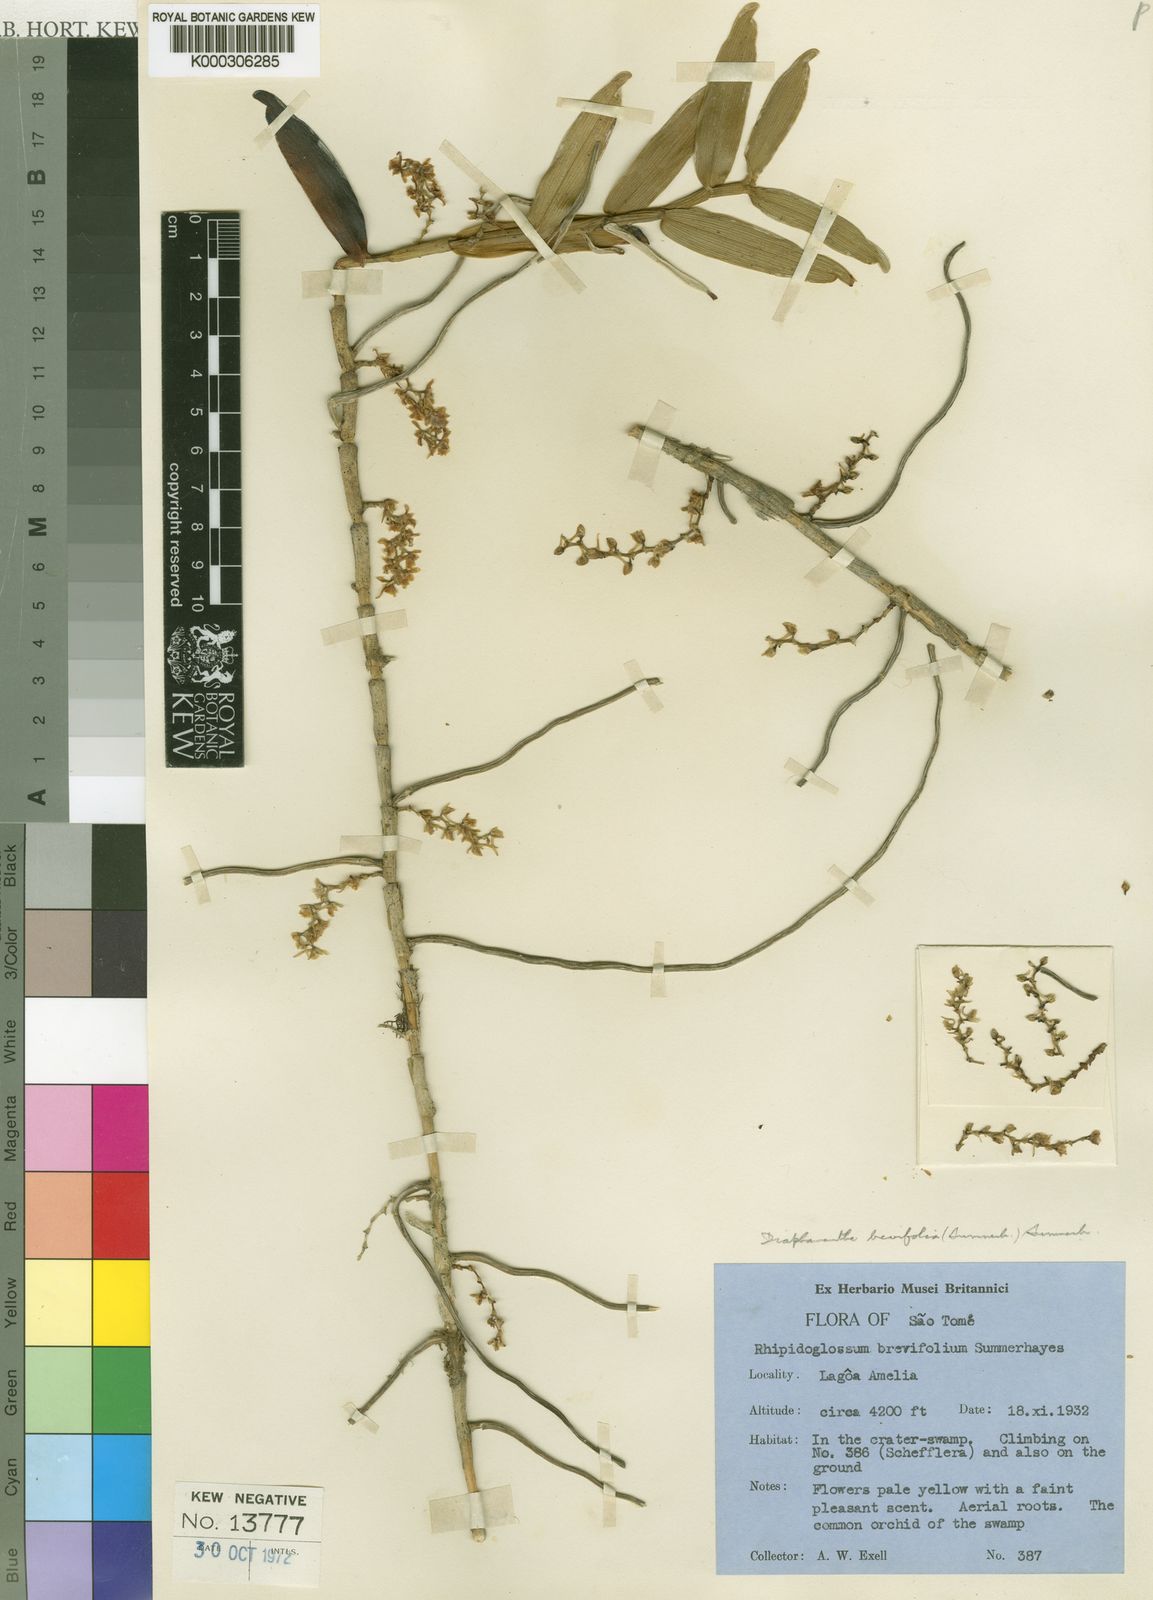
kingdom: Plantae
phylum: Tracheophyta
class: Liliopsida
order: Asparagales
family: Orchidaceae
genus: Rhipidoglossum
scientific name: Rhipidoglossum brevifolium
